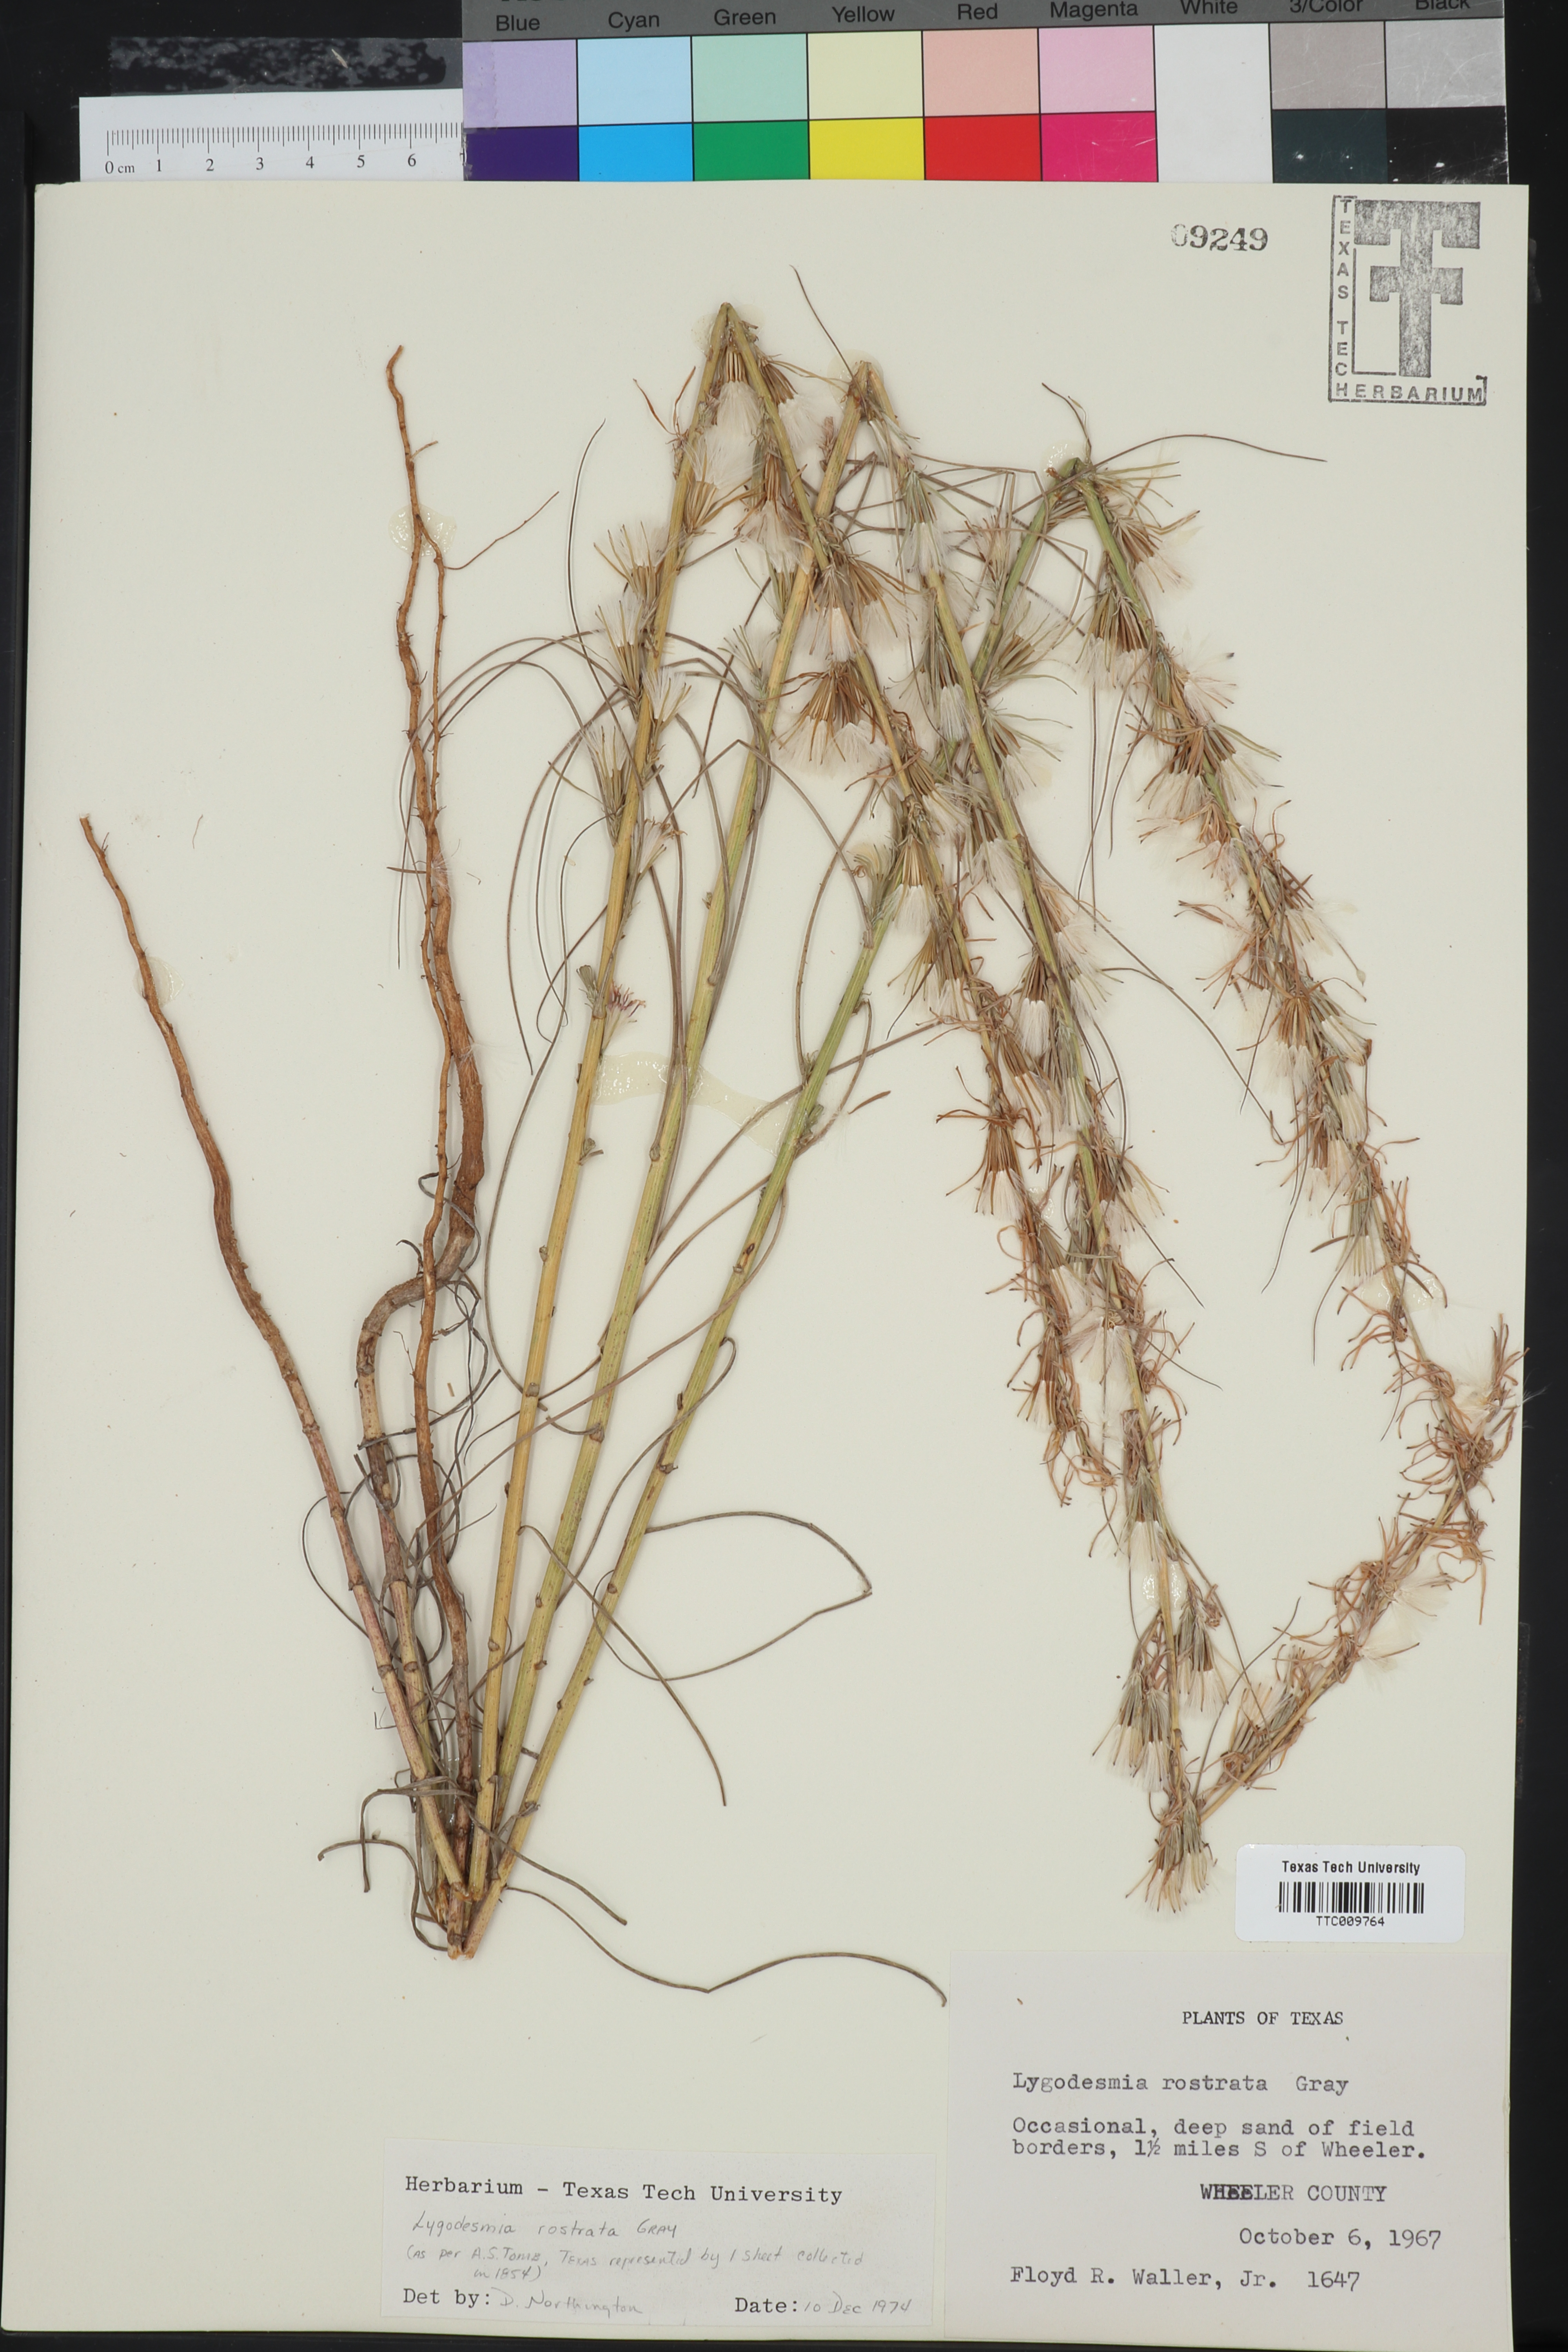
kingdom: Plantae
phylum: Tracheophyta
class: Magnoliopsida
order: Asterales
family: Asteraceae
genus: Shinnersoseris
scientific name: Shinnersoseris rostrata
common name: Annual skeleton-weed
